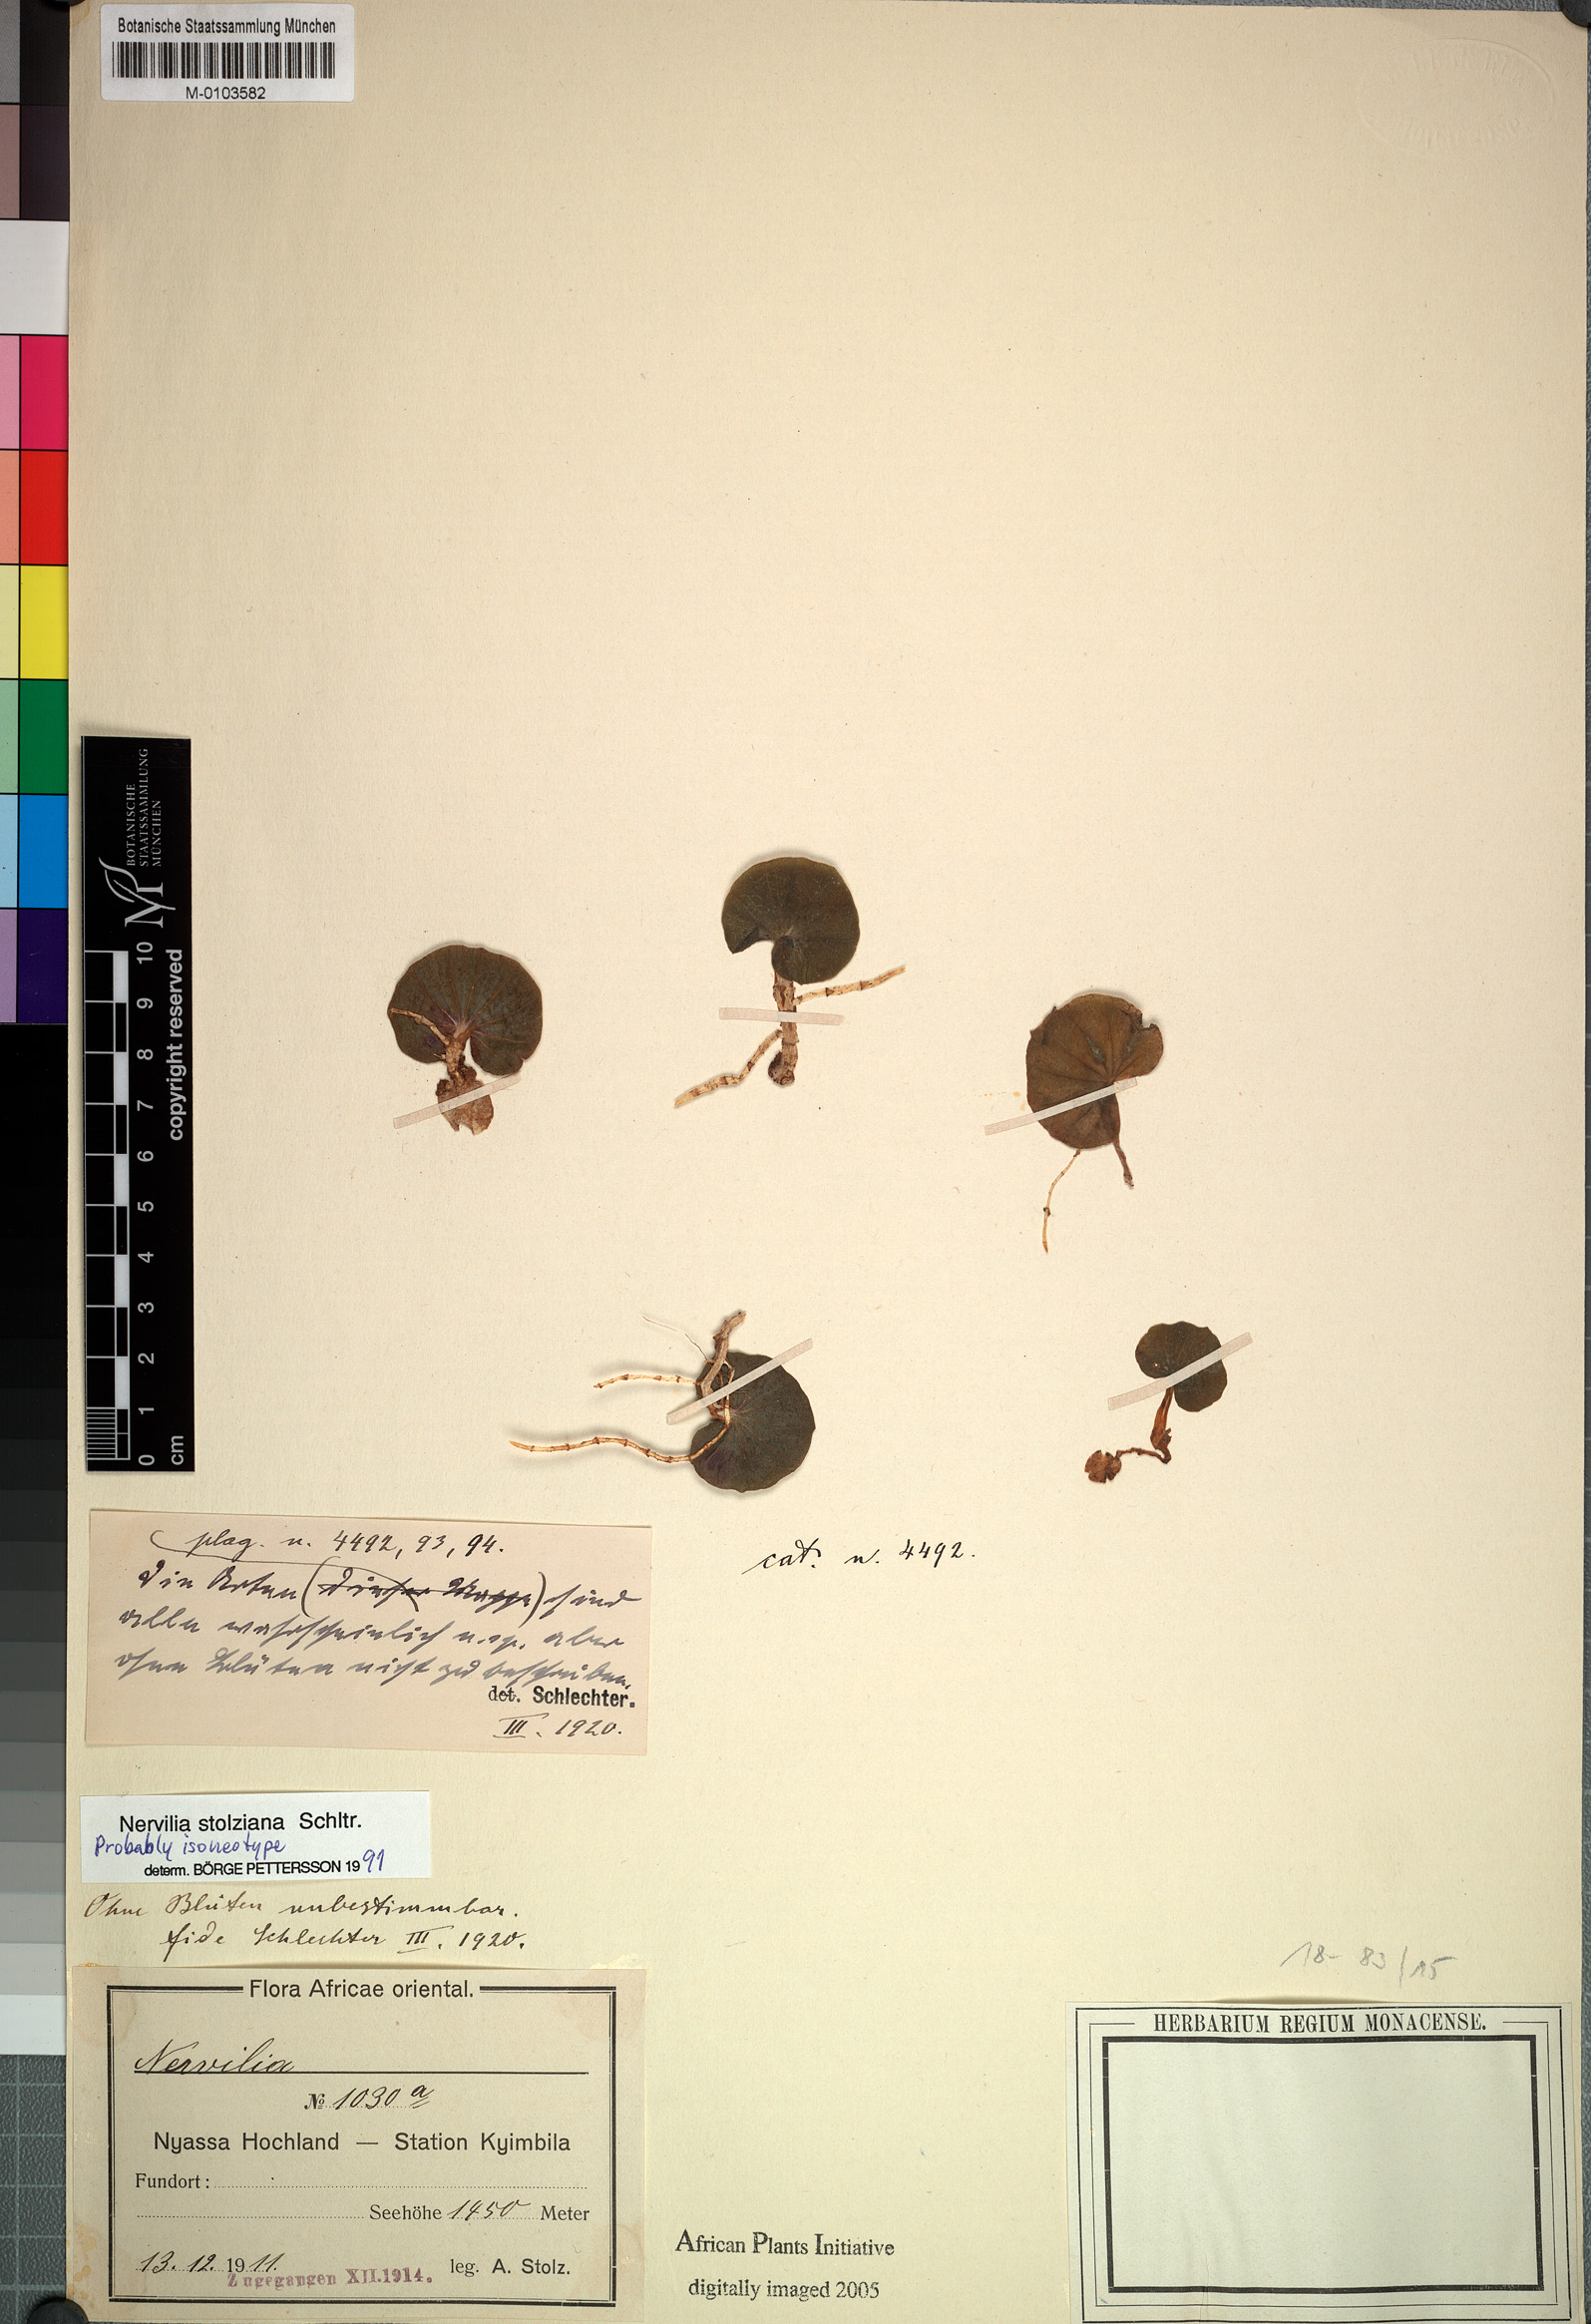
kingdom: Plantae
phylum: Tracheophyta
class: Liliopsida
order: Asparagales
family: Orchidaceae
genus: Nervilia
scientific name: Nervilia stolziana
